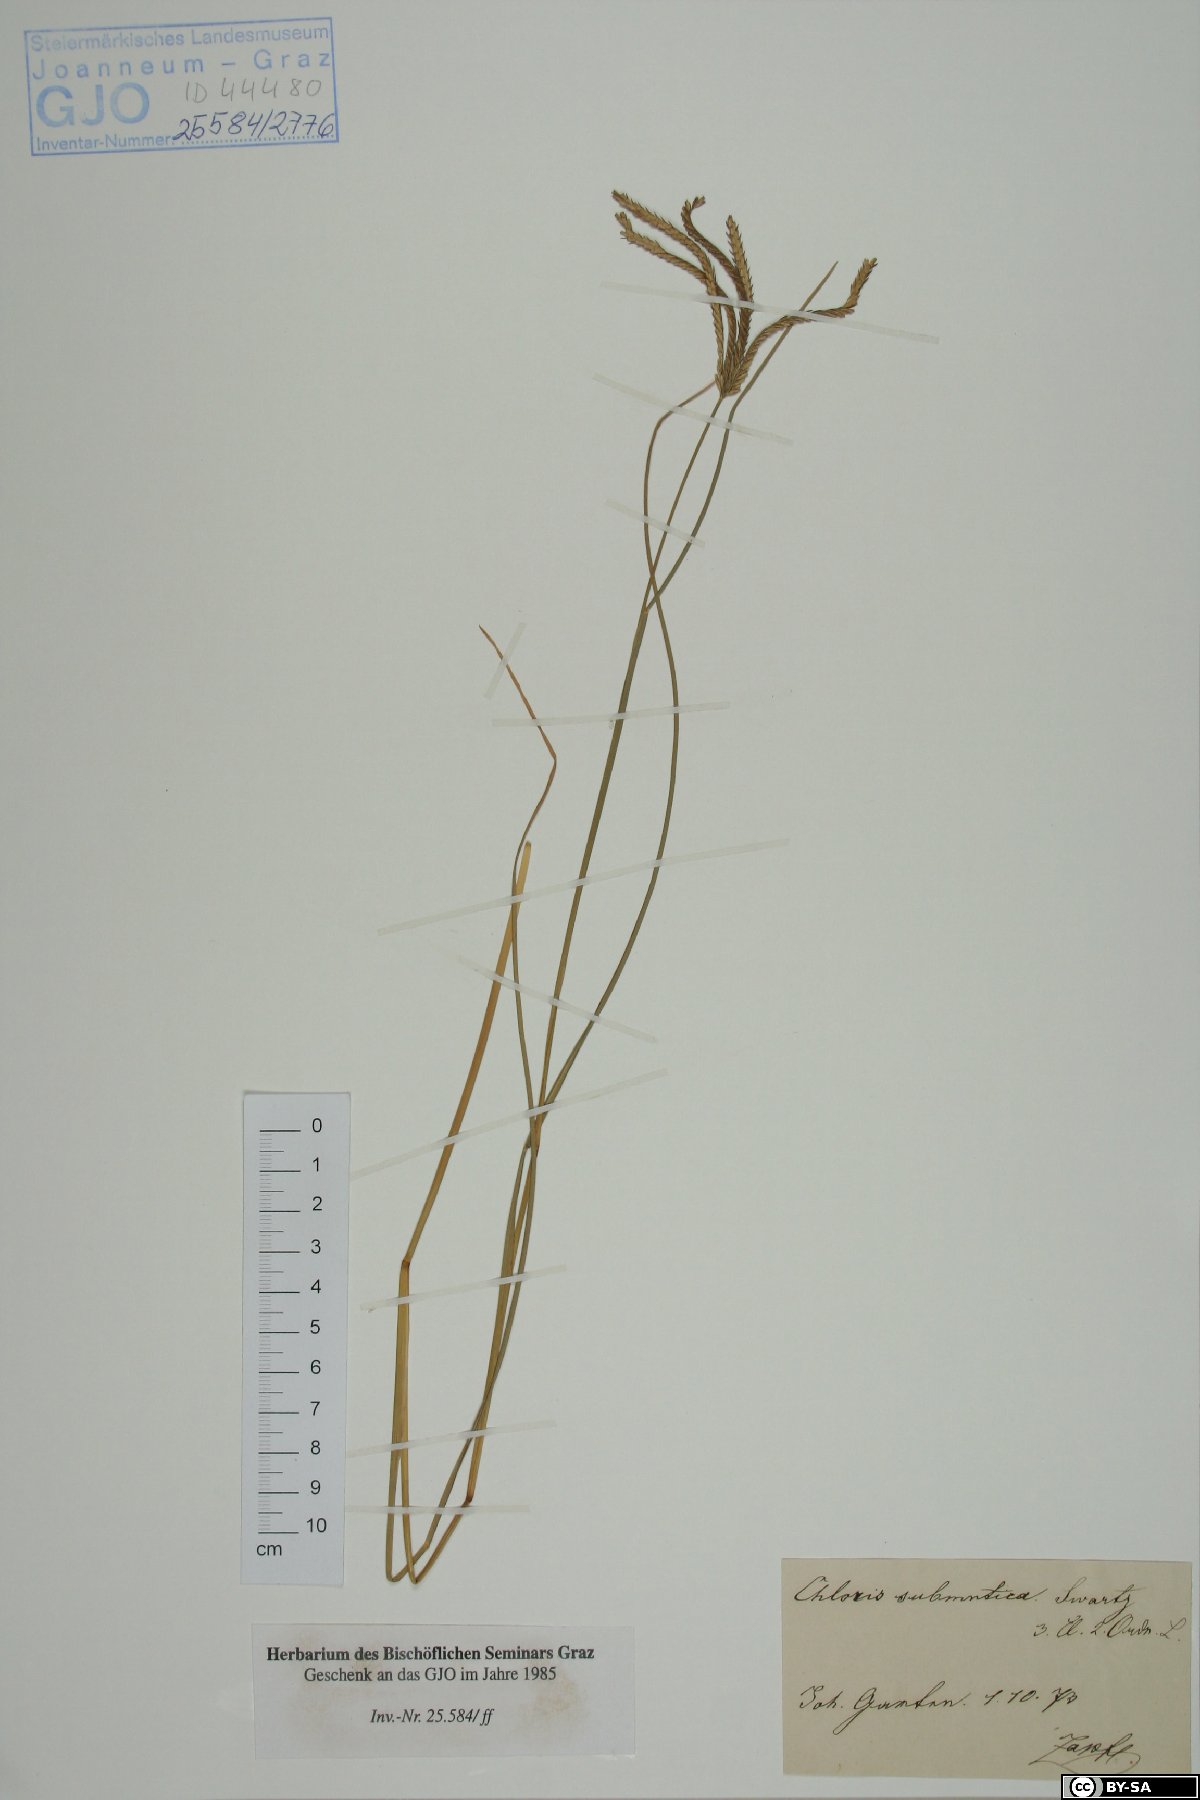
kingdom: Plantae
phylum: Tracheophyta
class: Liliopsida
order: Poales
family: Poaceae
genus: Chloris
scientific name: Chloris submutica
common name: Mexican windmill grass
